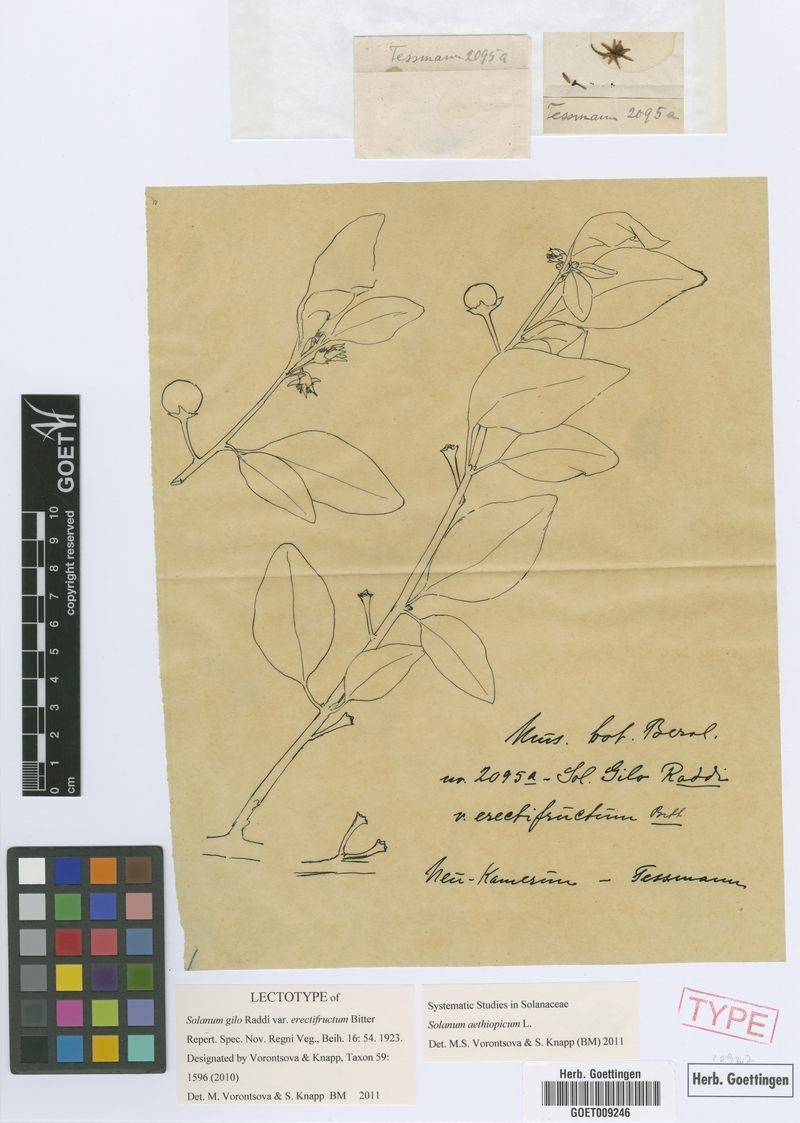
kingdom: Plantae
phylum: Tracheophyta
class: Magnoliopsida
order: Solanales
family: Solanaceae
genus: Solanum
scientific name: Solanum aethiopicum
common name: Gilo
